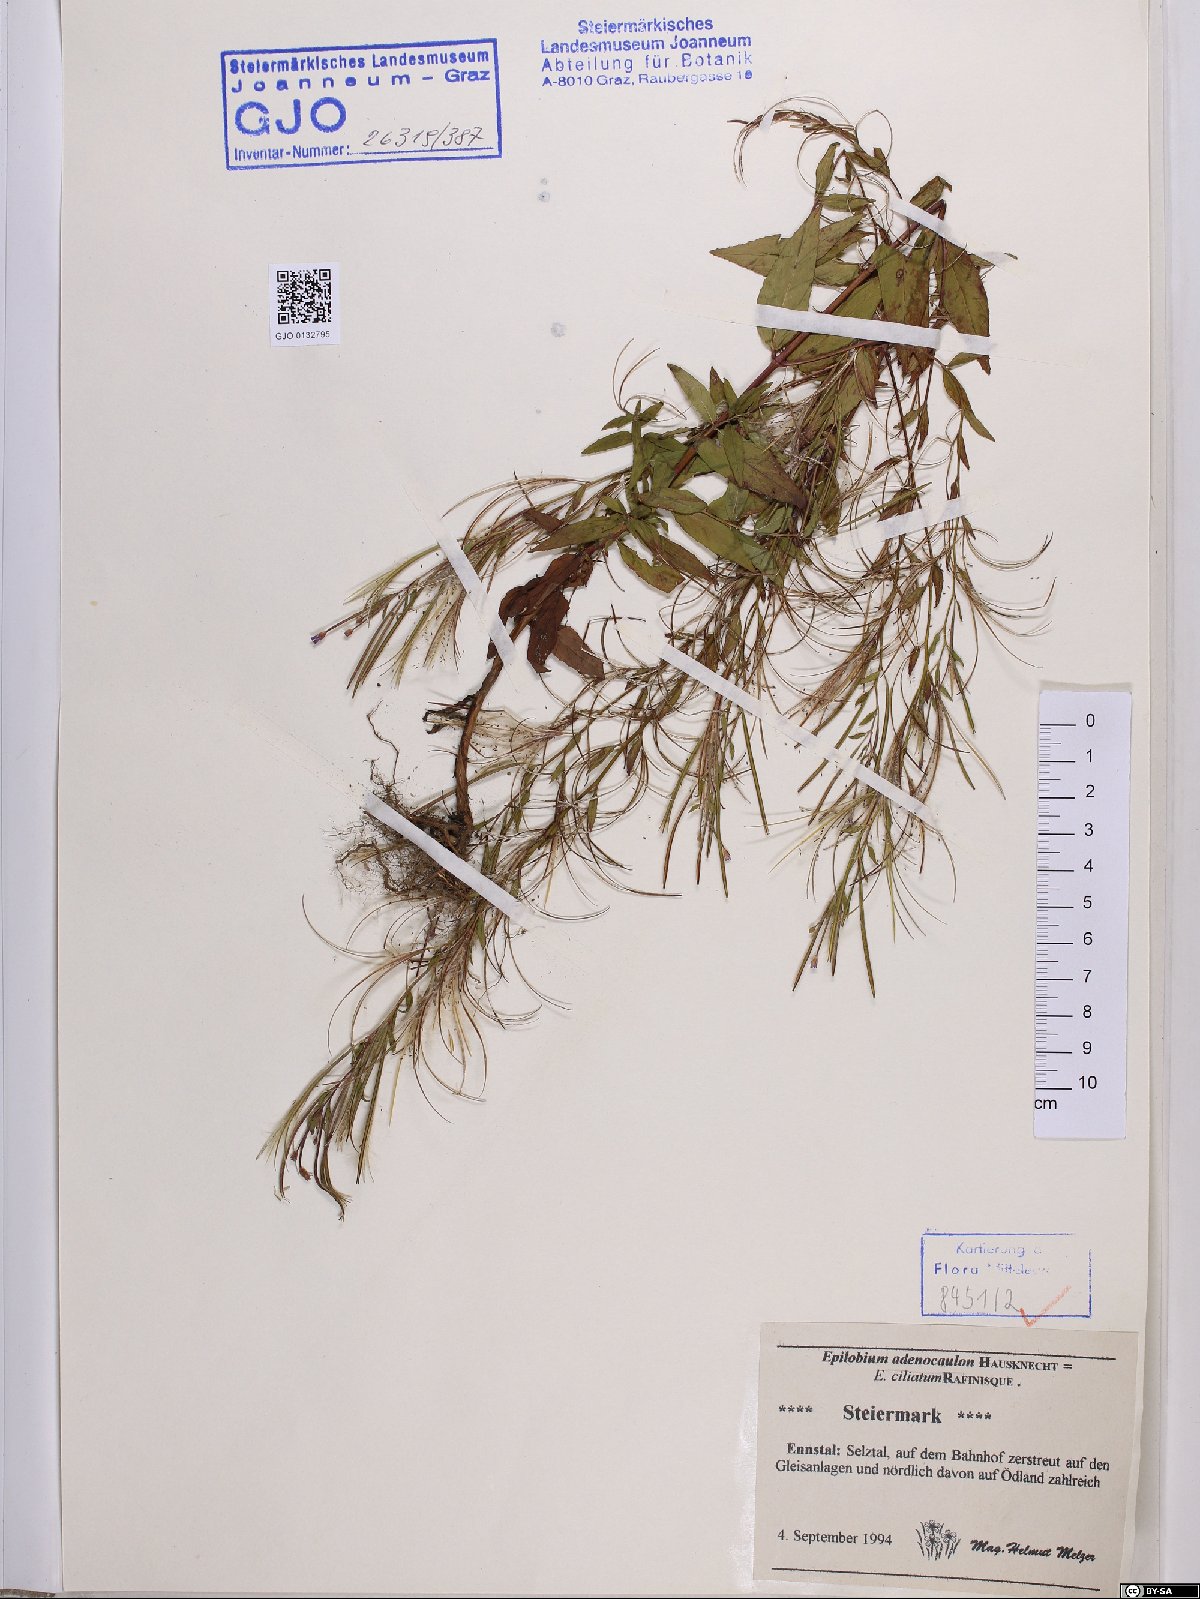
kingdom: Plantae
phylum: Tracheophyta
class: Magnoliopsida
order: Myrtales
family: Onagraceae
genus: Epilobium
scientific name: Epilobium ciliatum
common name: American willowherb
